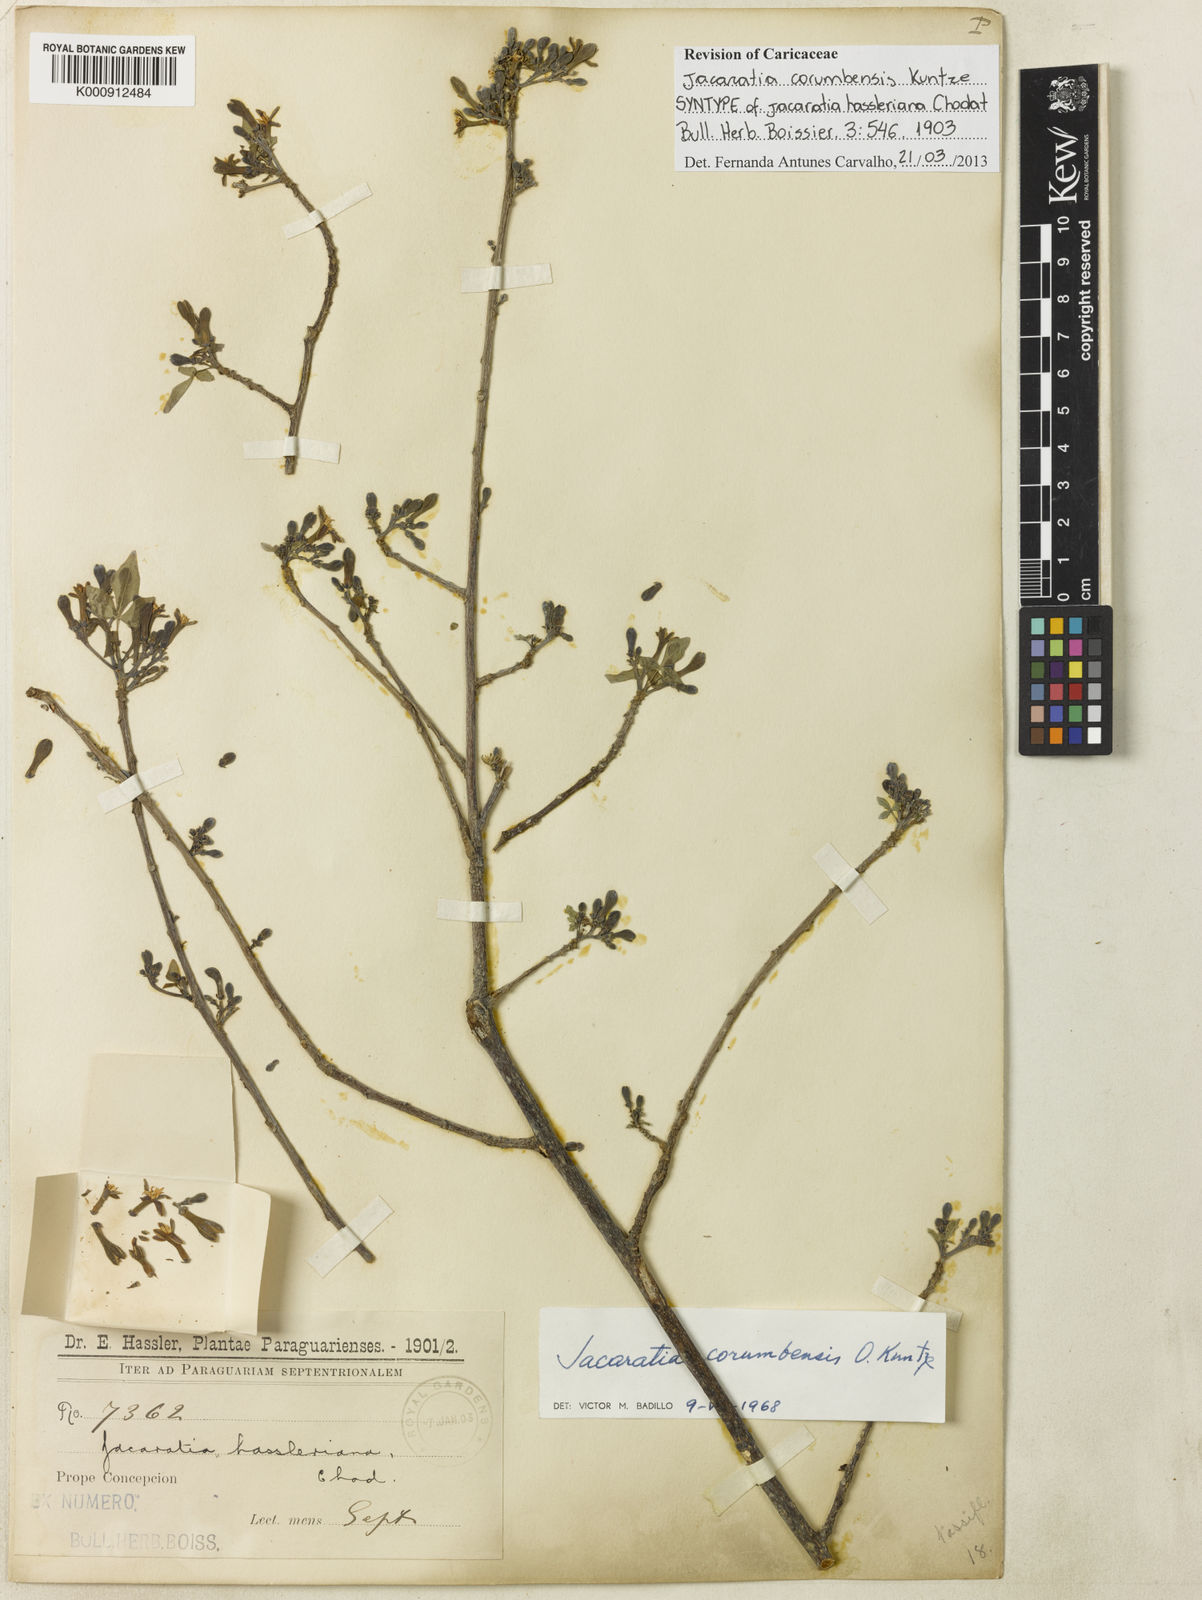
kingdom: Plantae
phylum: Tracheophyta
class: Magnoliopsida
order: Brassicales
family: Caricaceae
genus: Jacaratia
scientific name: Jacaratia corumbensis
